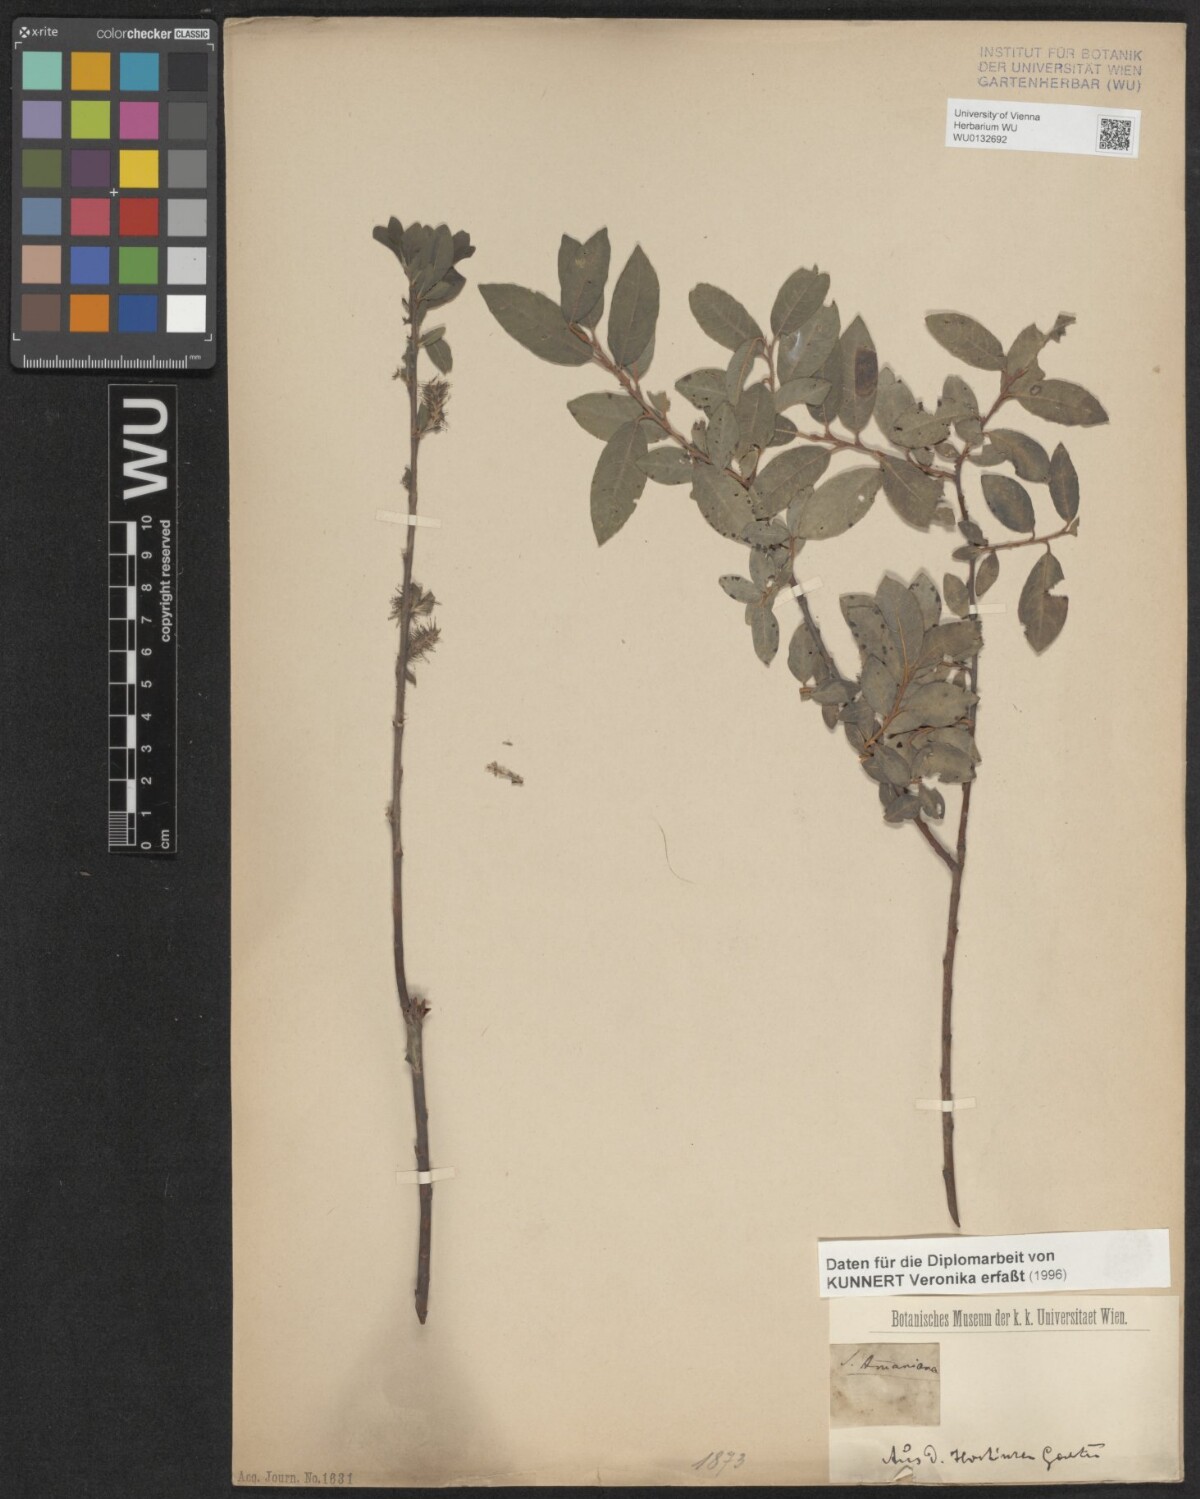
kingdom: Plantae
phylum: Tracheophyta
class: Magnoliopsida
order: Malpighiales
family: Salicaceae
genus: Salix
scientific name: Salix myrsinifolia
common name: Dark-leaved willow
